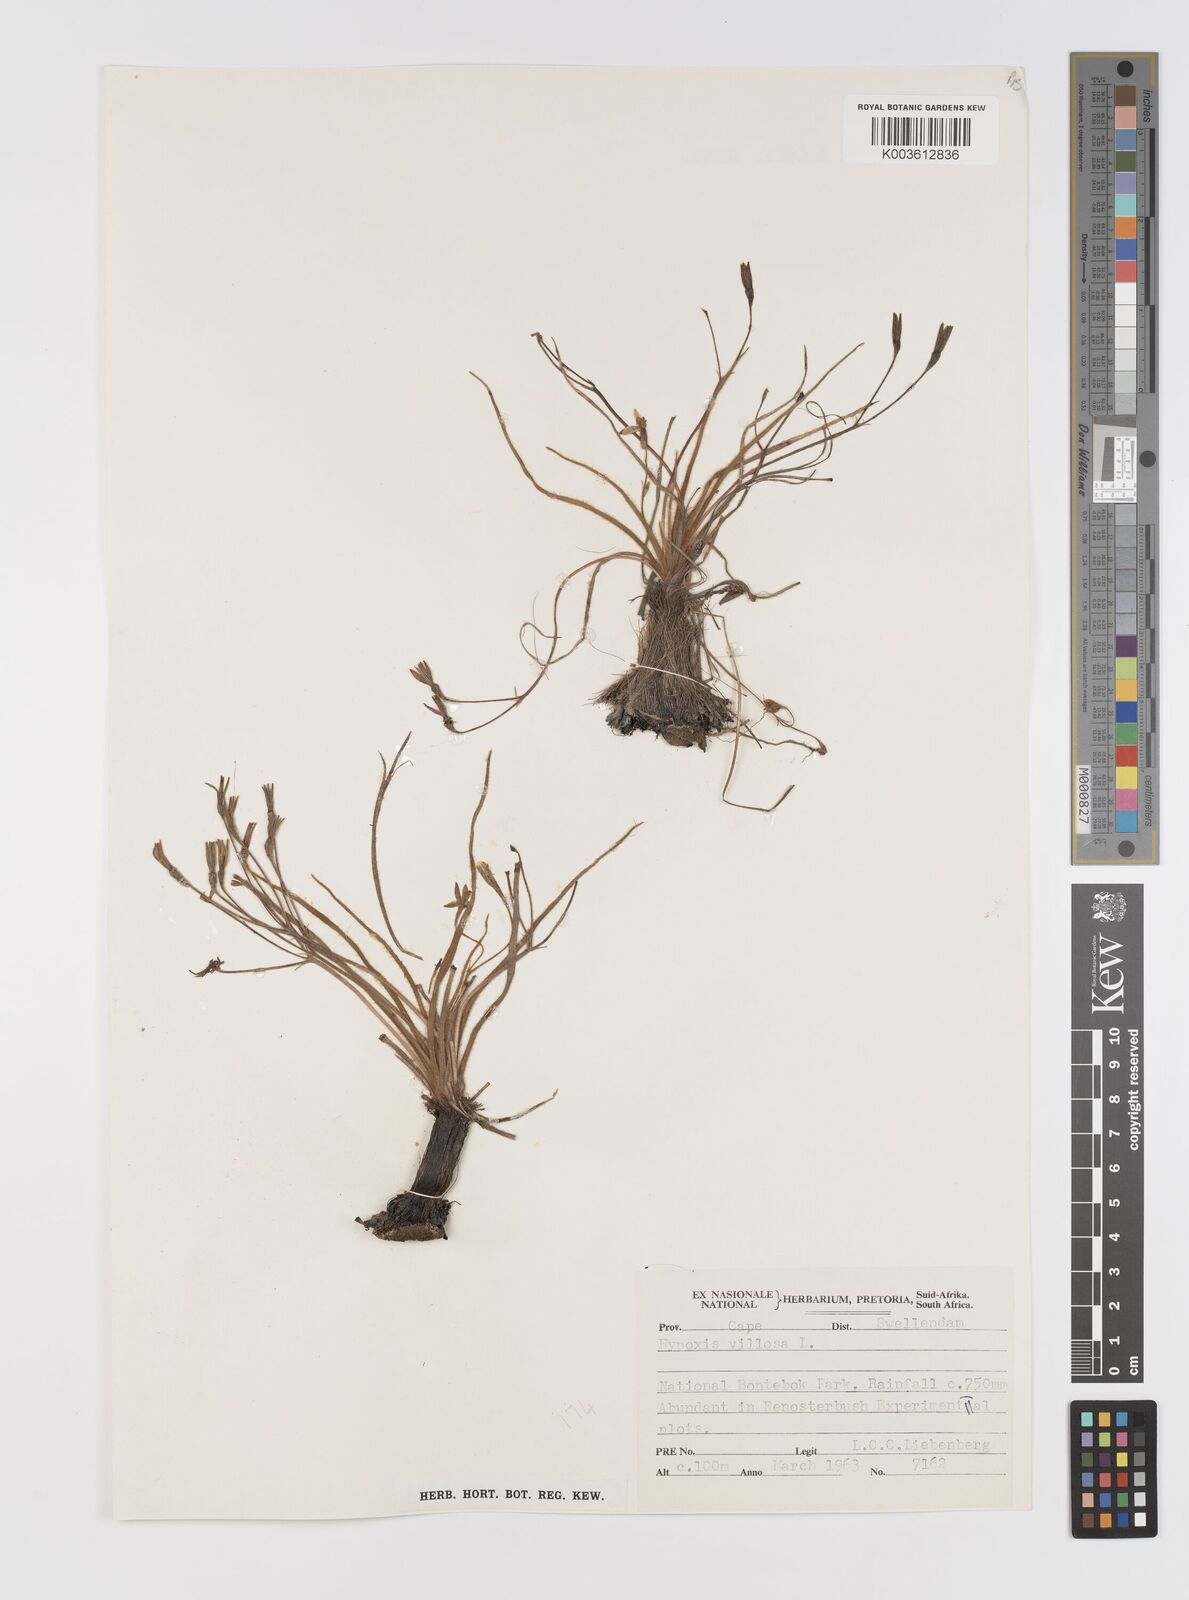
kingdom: Plantae
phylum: Tracheophyta
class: Liliopsida
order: Asparagales
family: Hypoxidaceae
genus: Hypoxis
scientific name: Hypoxis villosa
